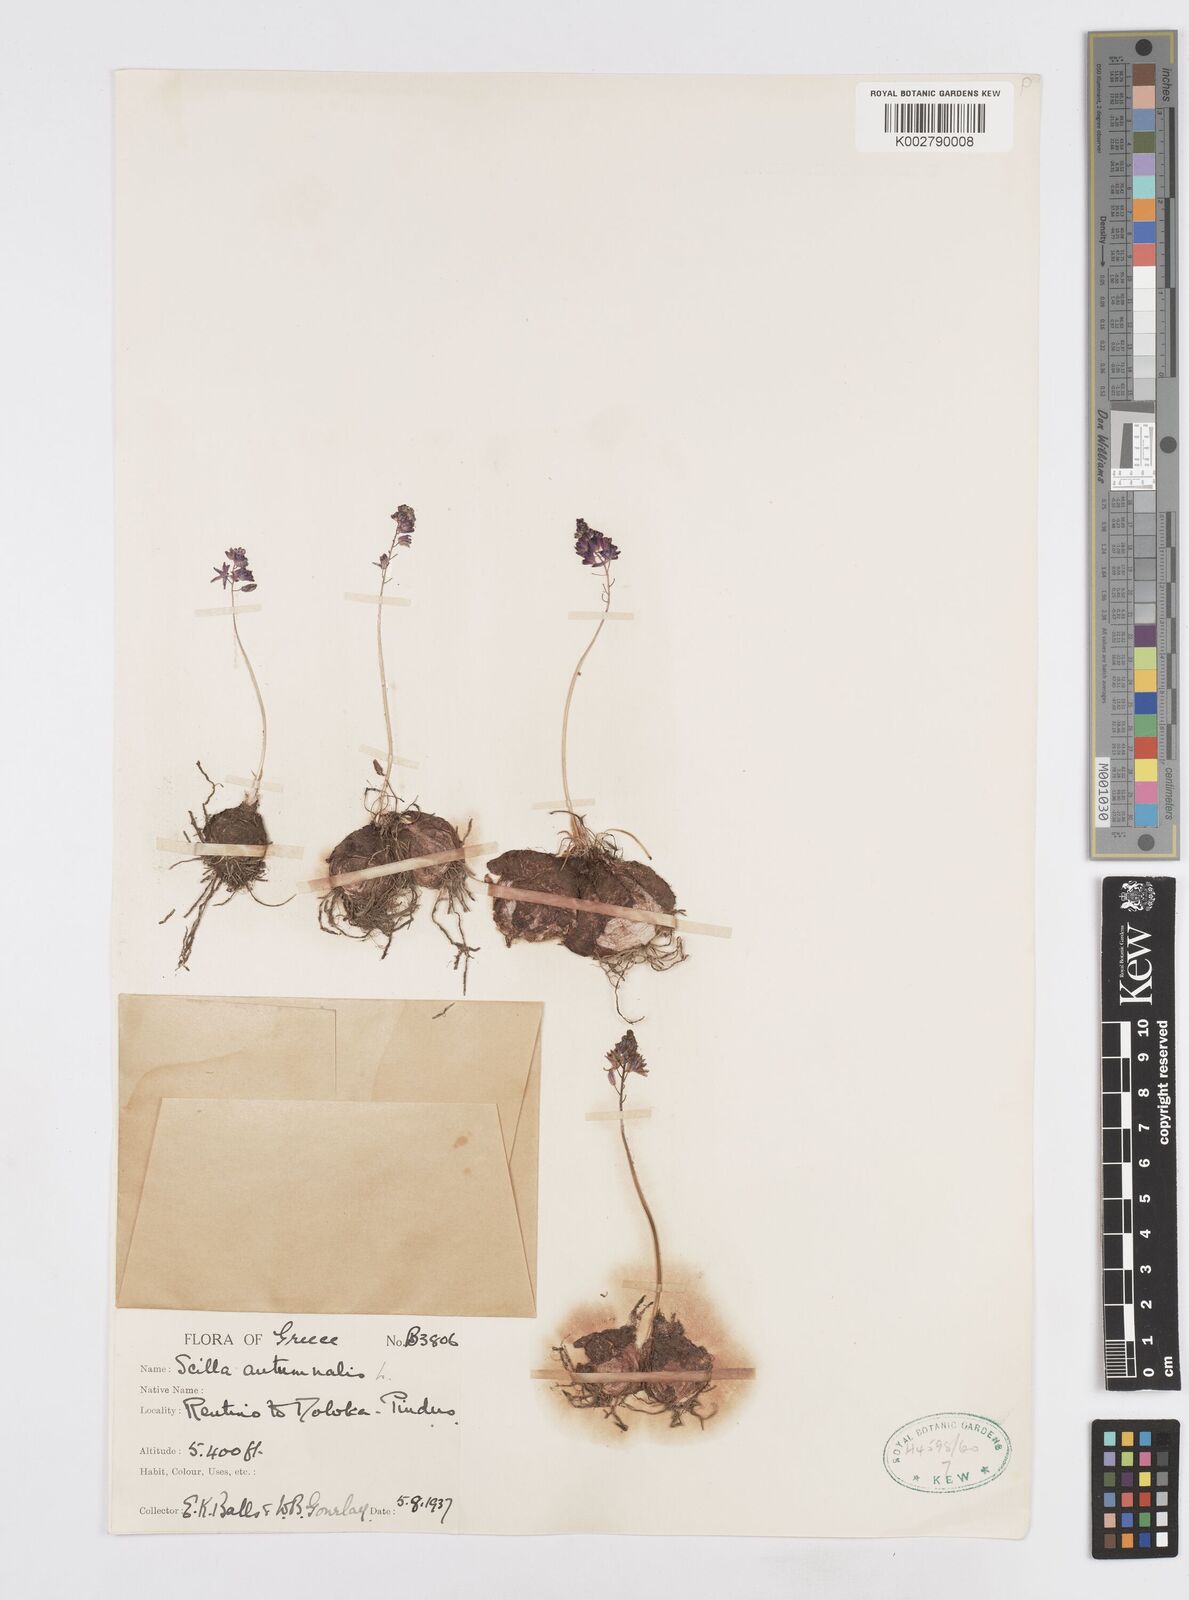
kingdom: Plantae
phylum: Tracheophyta
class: Liliopsida
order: Asparagales
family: Asparagaceae
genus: Prospero
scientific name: Prospero autumnale
